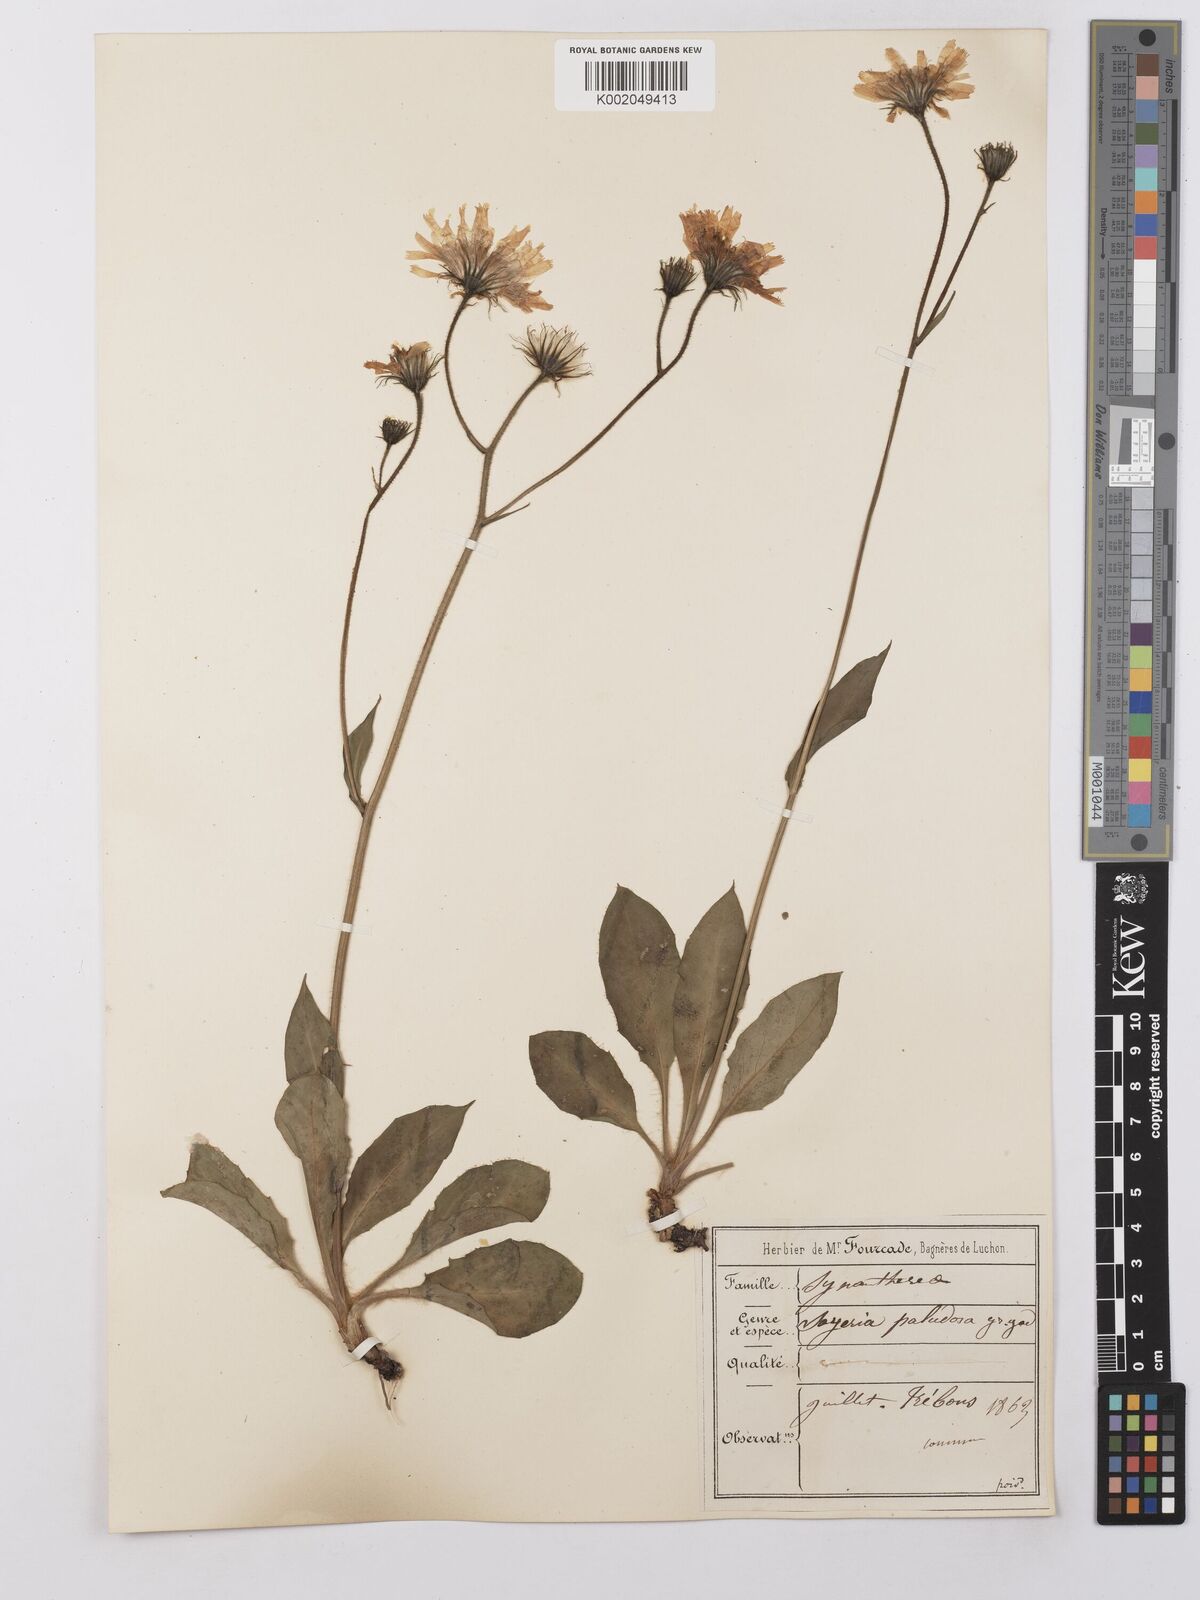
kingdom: Plantae
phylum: Tracheophyta
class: Magnoliopsida
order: Asterales
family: Asteraceae
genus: Hieracium
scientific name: Hieracium cerinthoides
